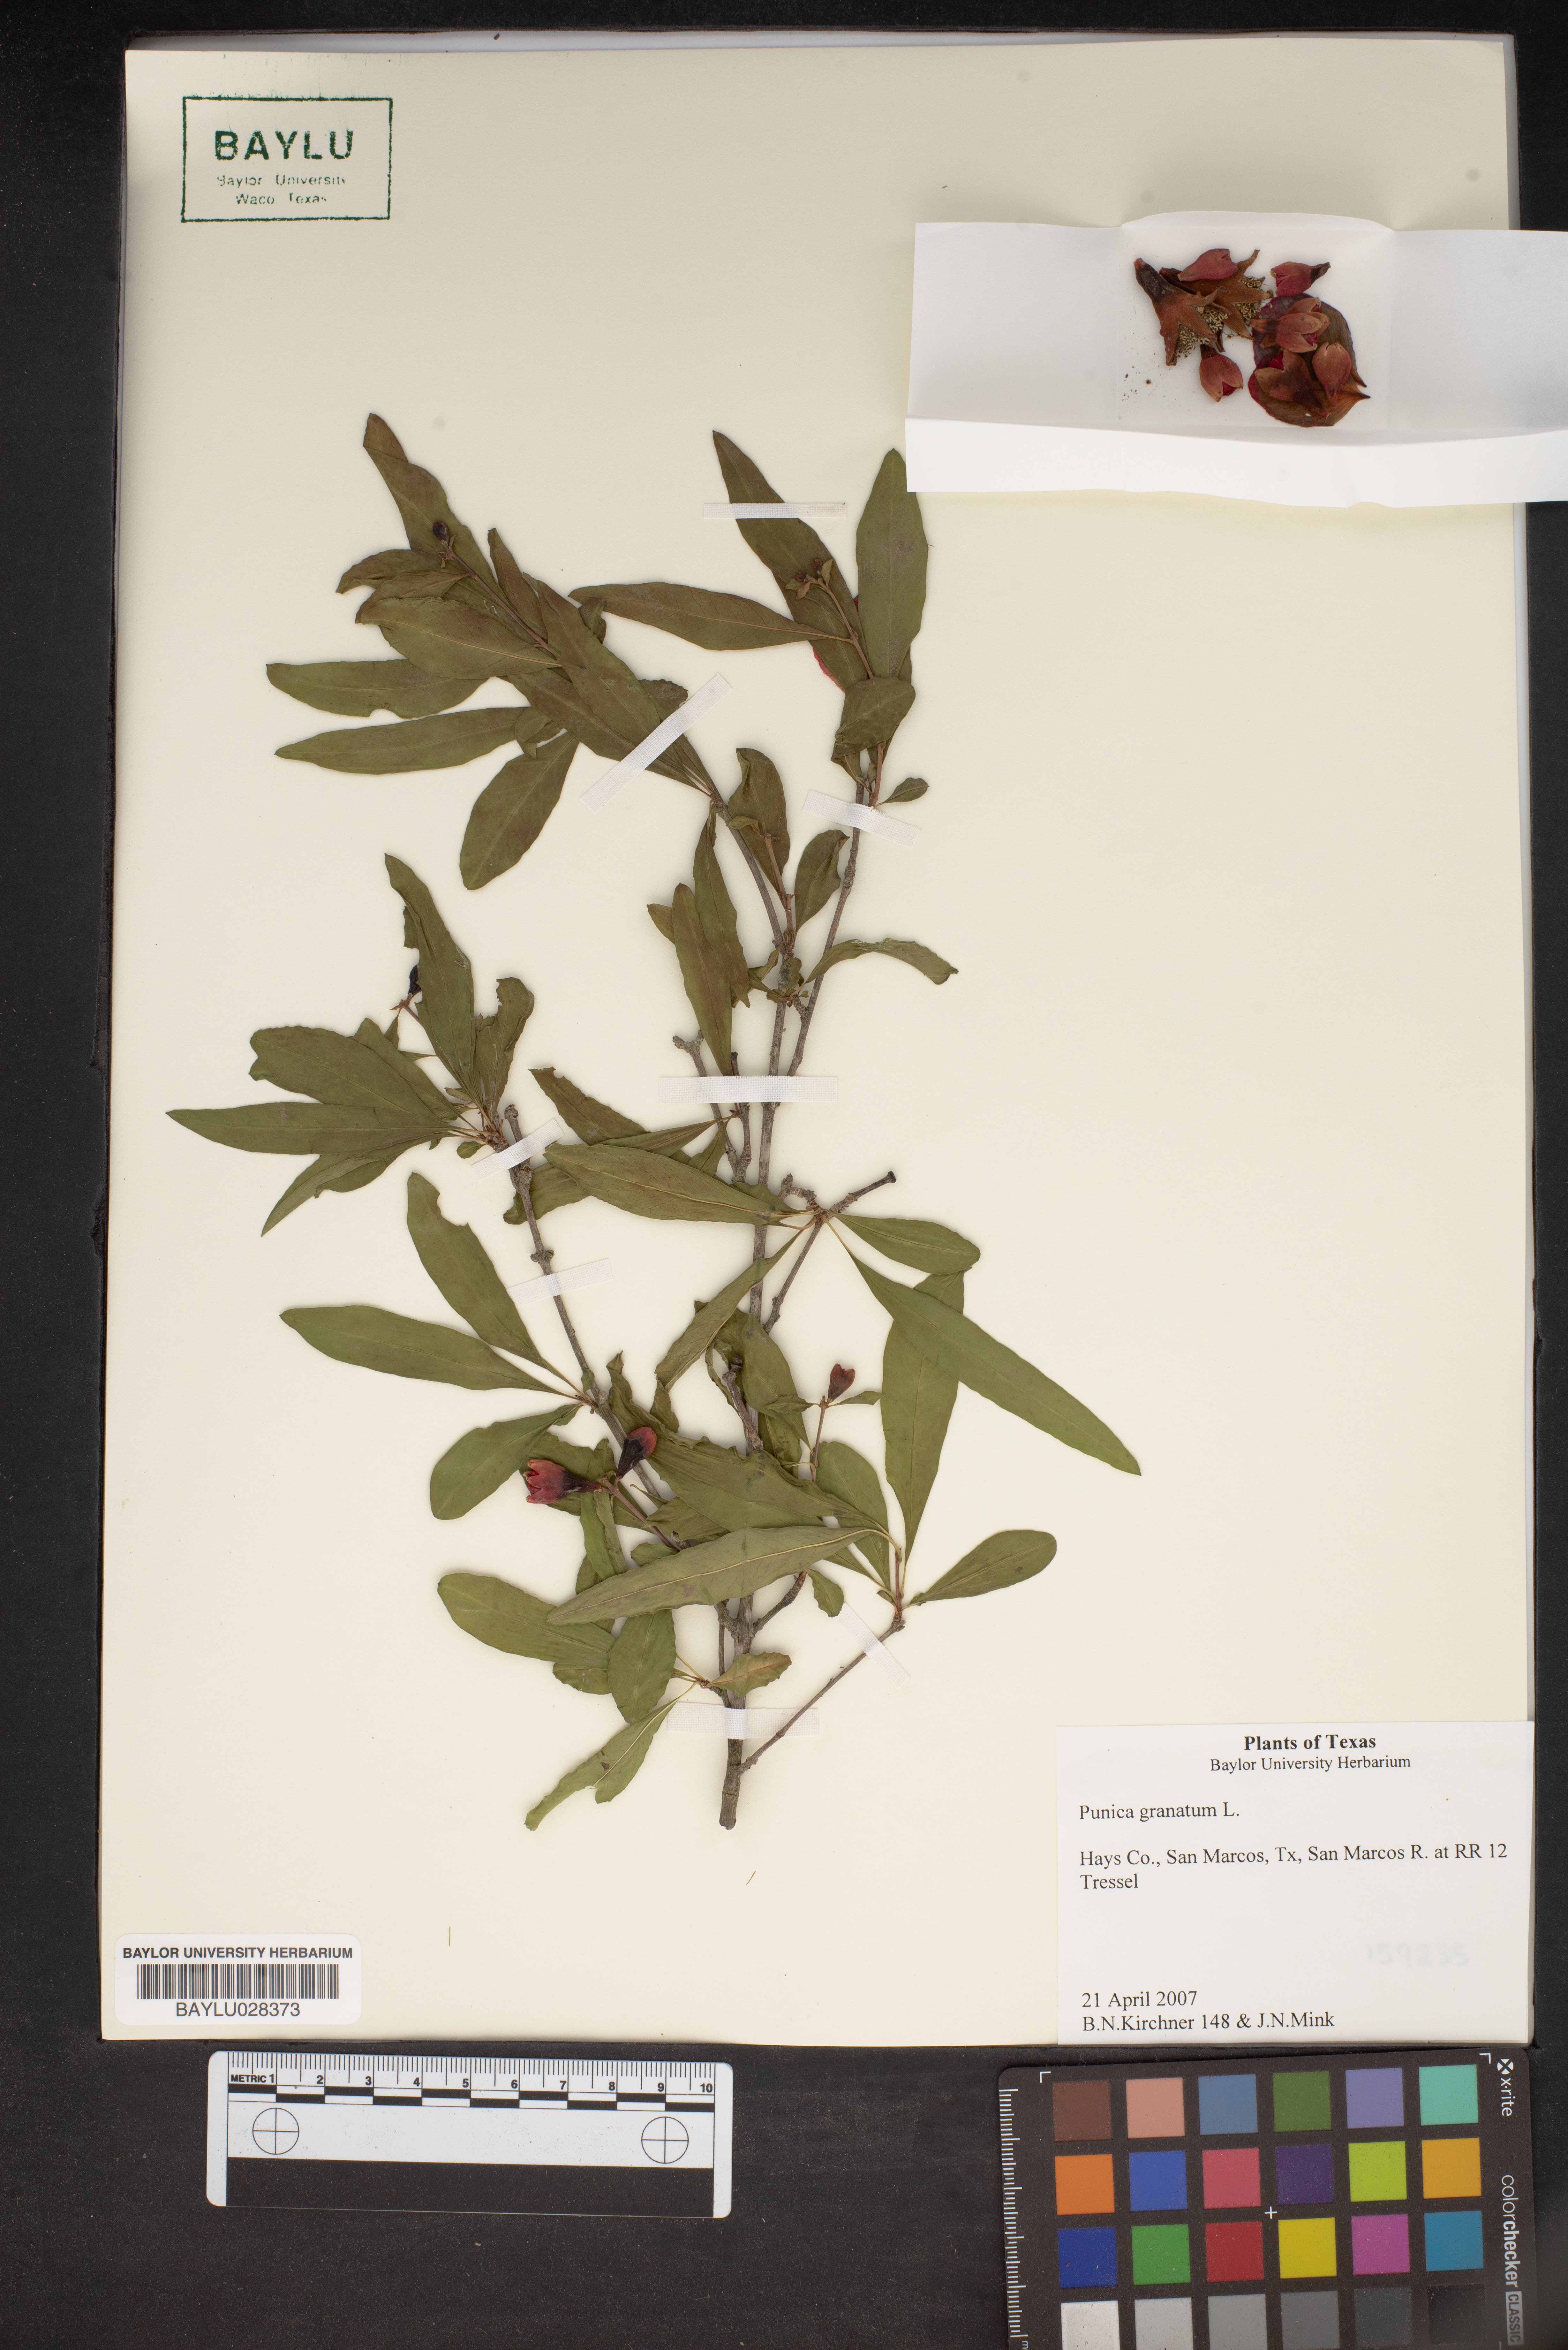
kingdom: Plantae
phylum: Tracheophyta
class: Magnoliopsida
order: Myrtales
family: Lythraceae
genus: Punica
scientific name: Punica granatum
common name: Pomegranate
